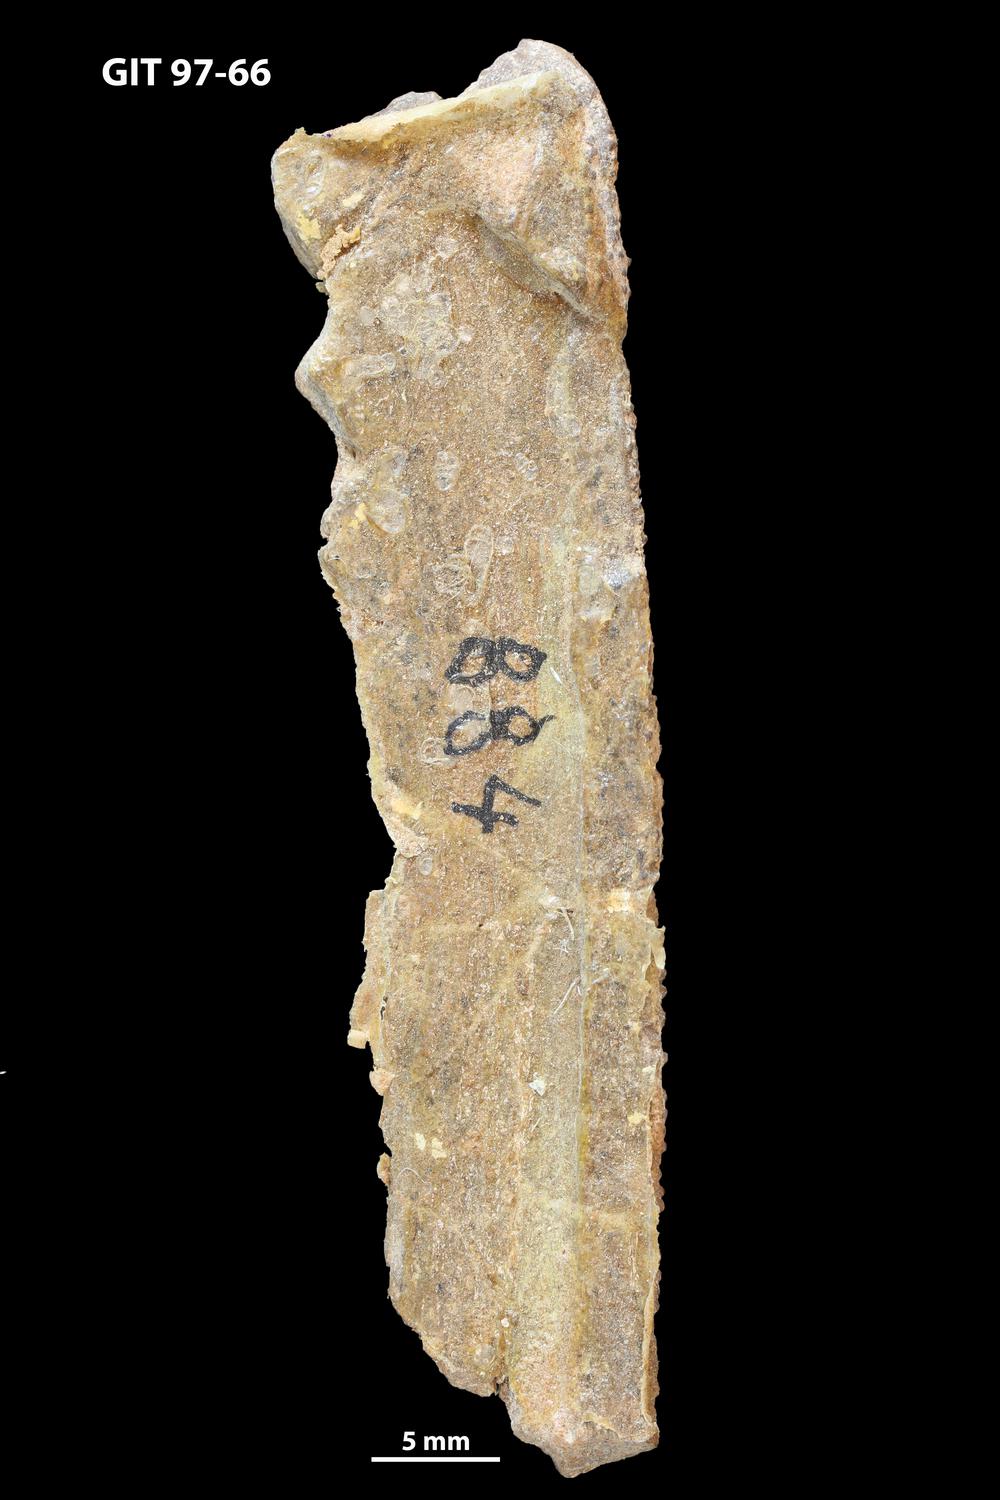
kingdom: Animalia
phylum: Chordata
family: Holonematidae
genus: Holonema
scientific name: Holonema
